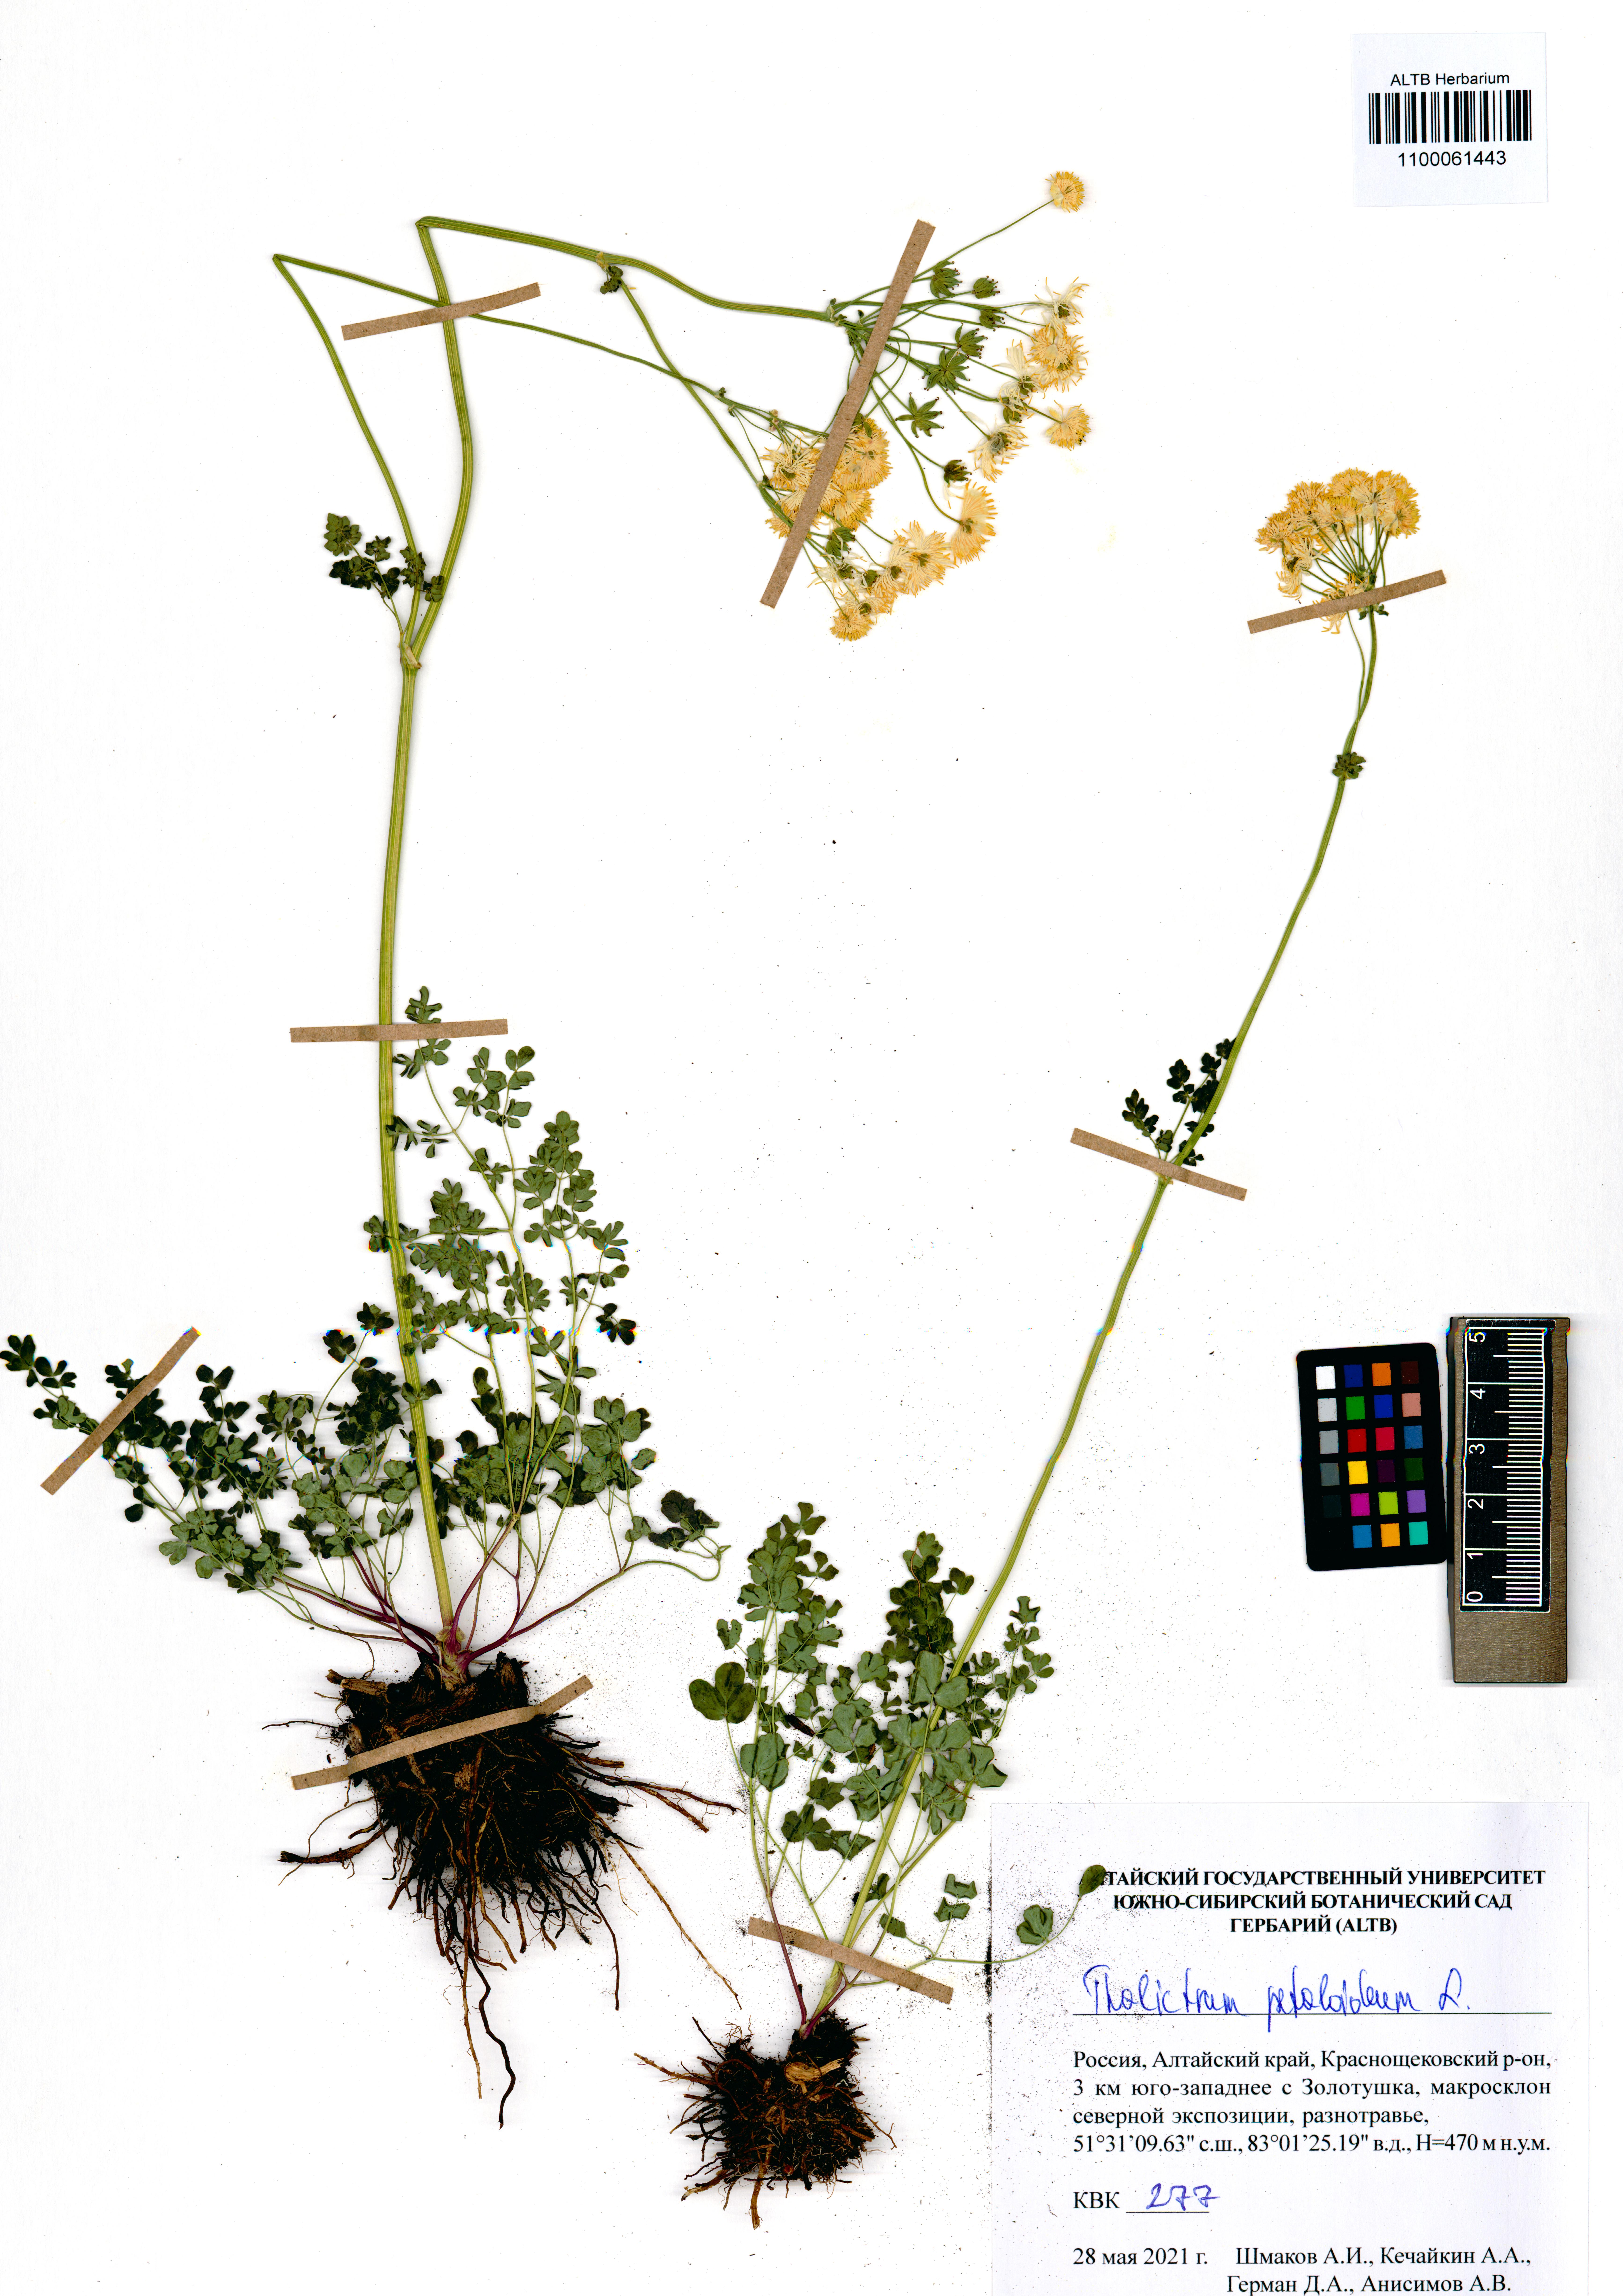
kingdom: Plantae
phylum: Tracheophyta
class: Magnoliopsida
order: Ranunculales
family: Ranunculaceae
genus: Thalictrum
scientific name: Thalictrum petaloideum
